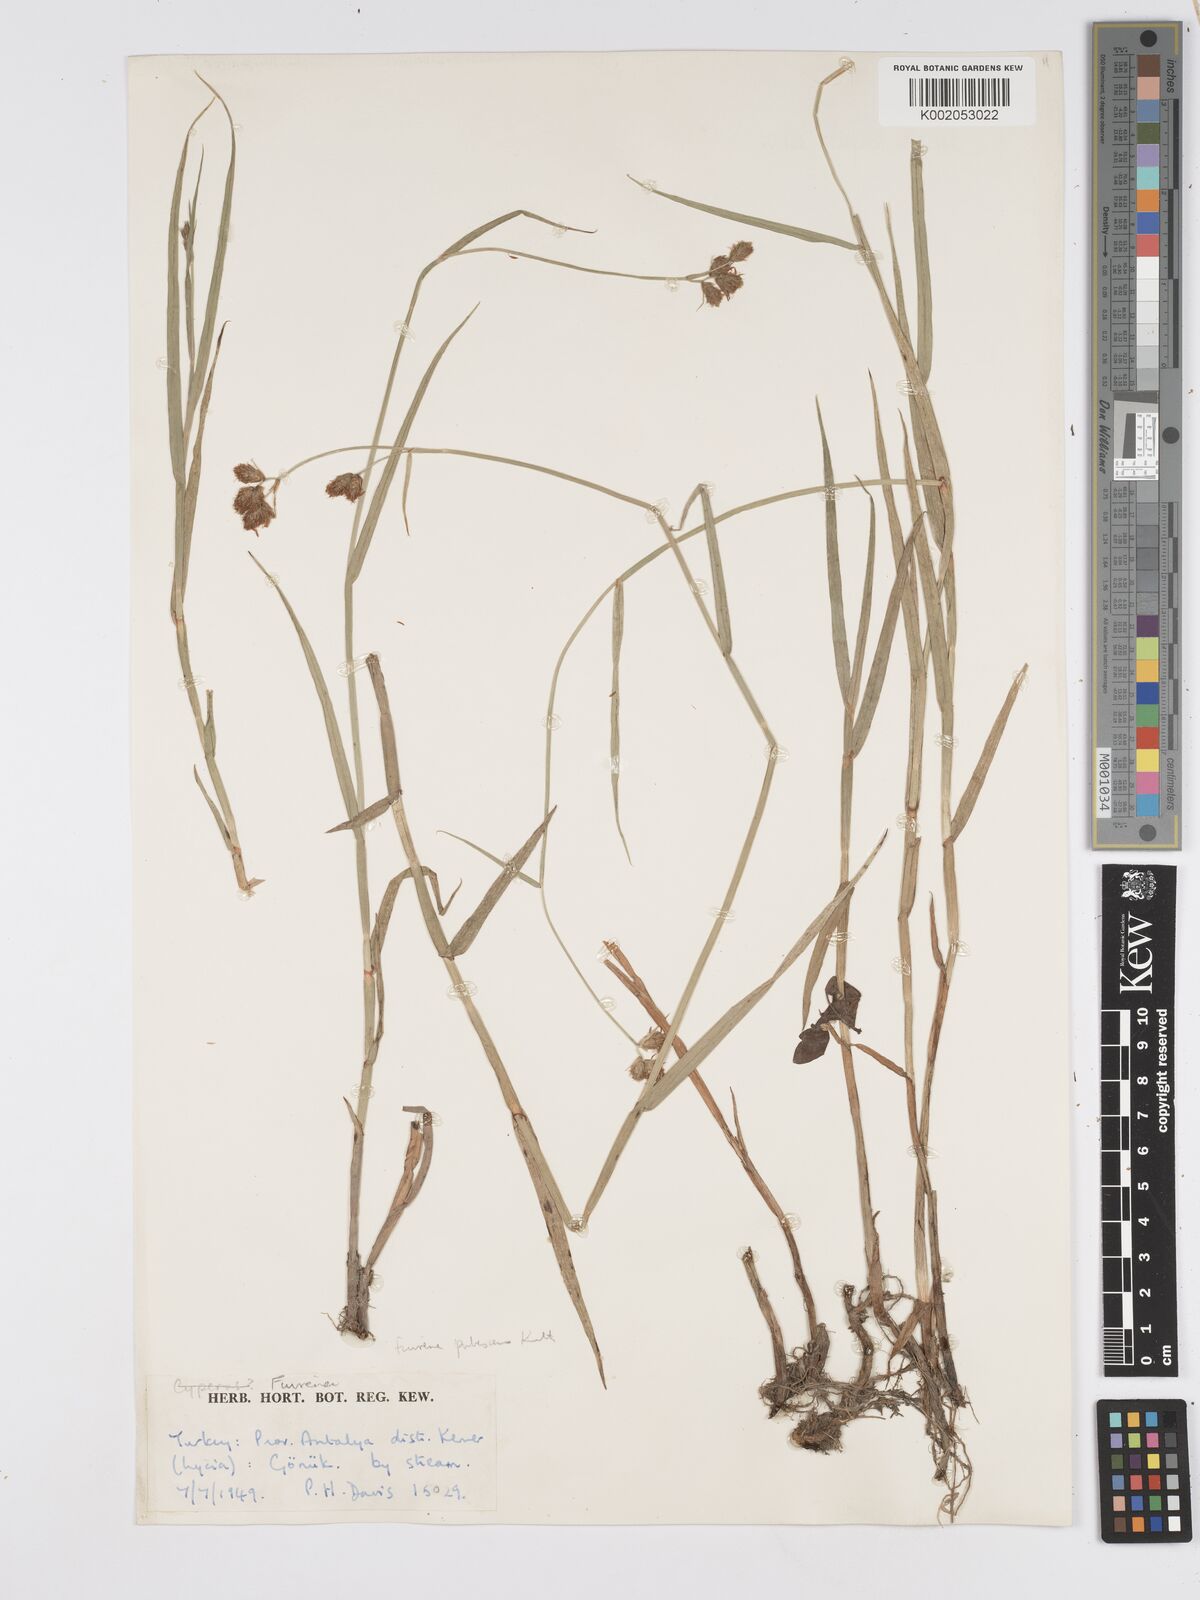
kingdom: Plantae
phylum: Tracheophyta
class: Liliopsida
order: Poales
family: Cyperaceae
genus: Fuirena
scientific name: Fuirena pubescens
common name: Hairy sedge
